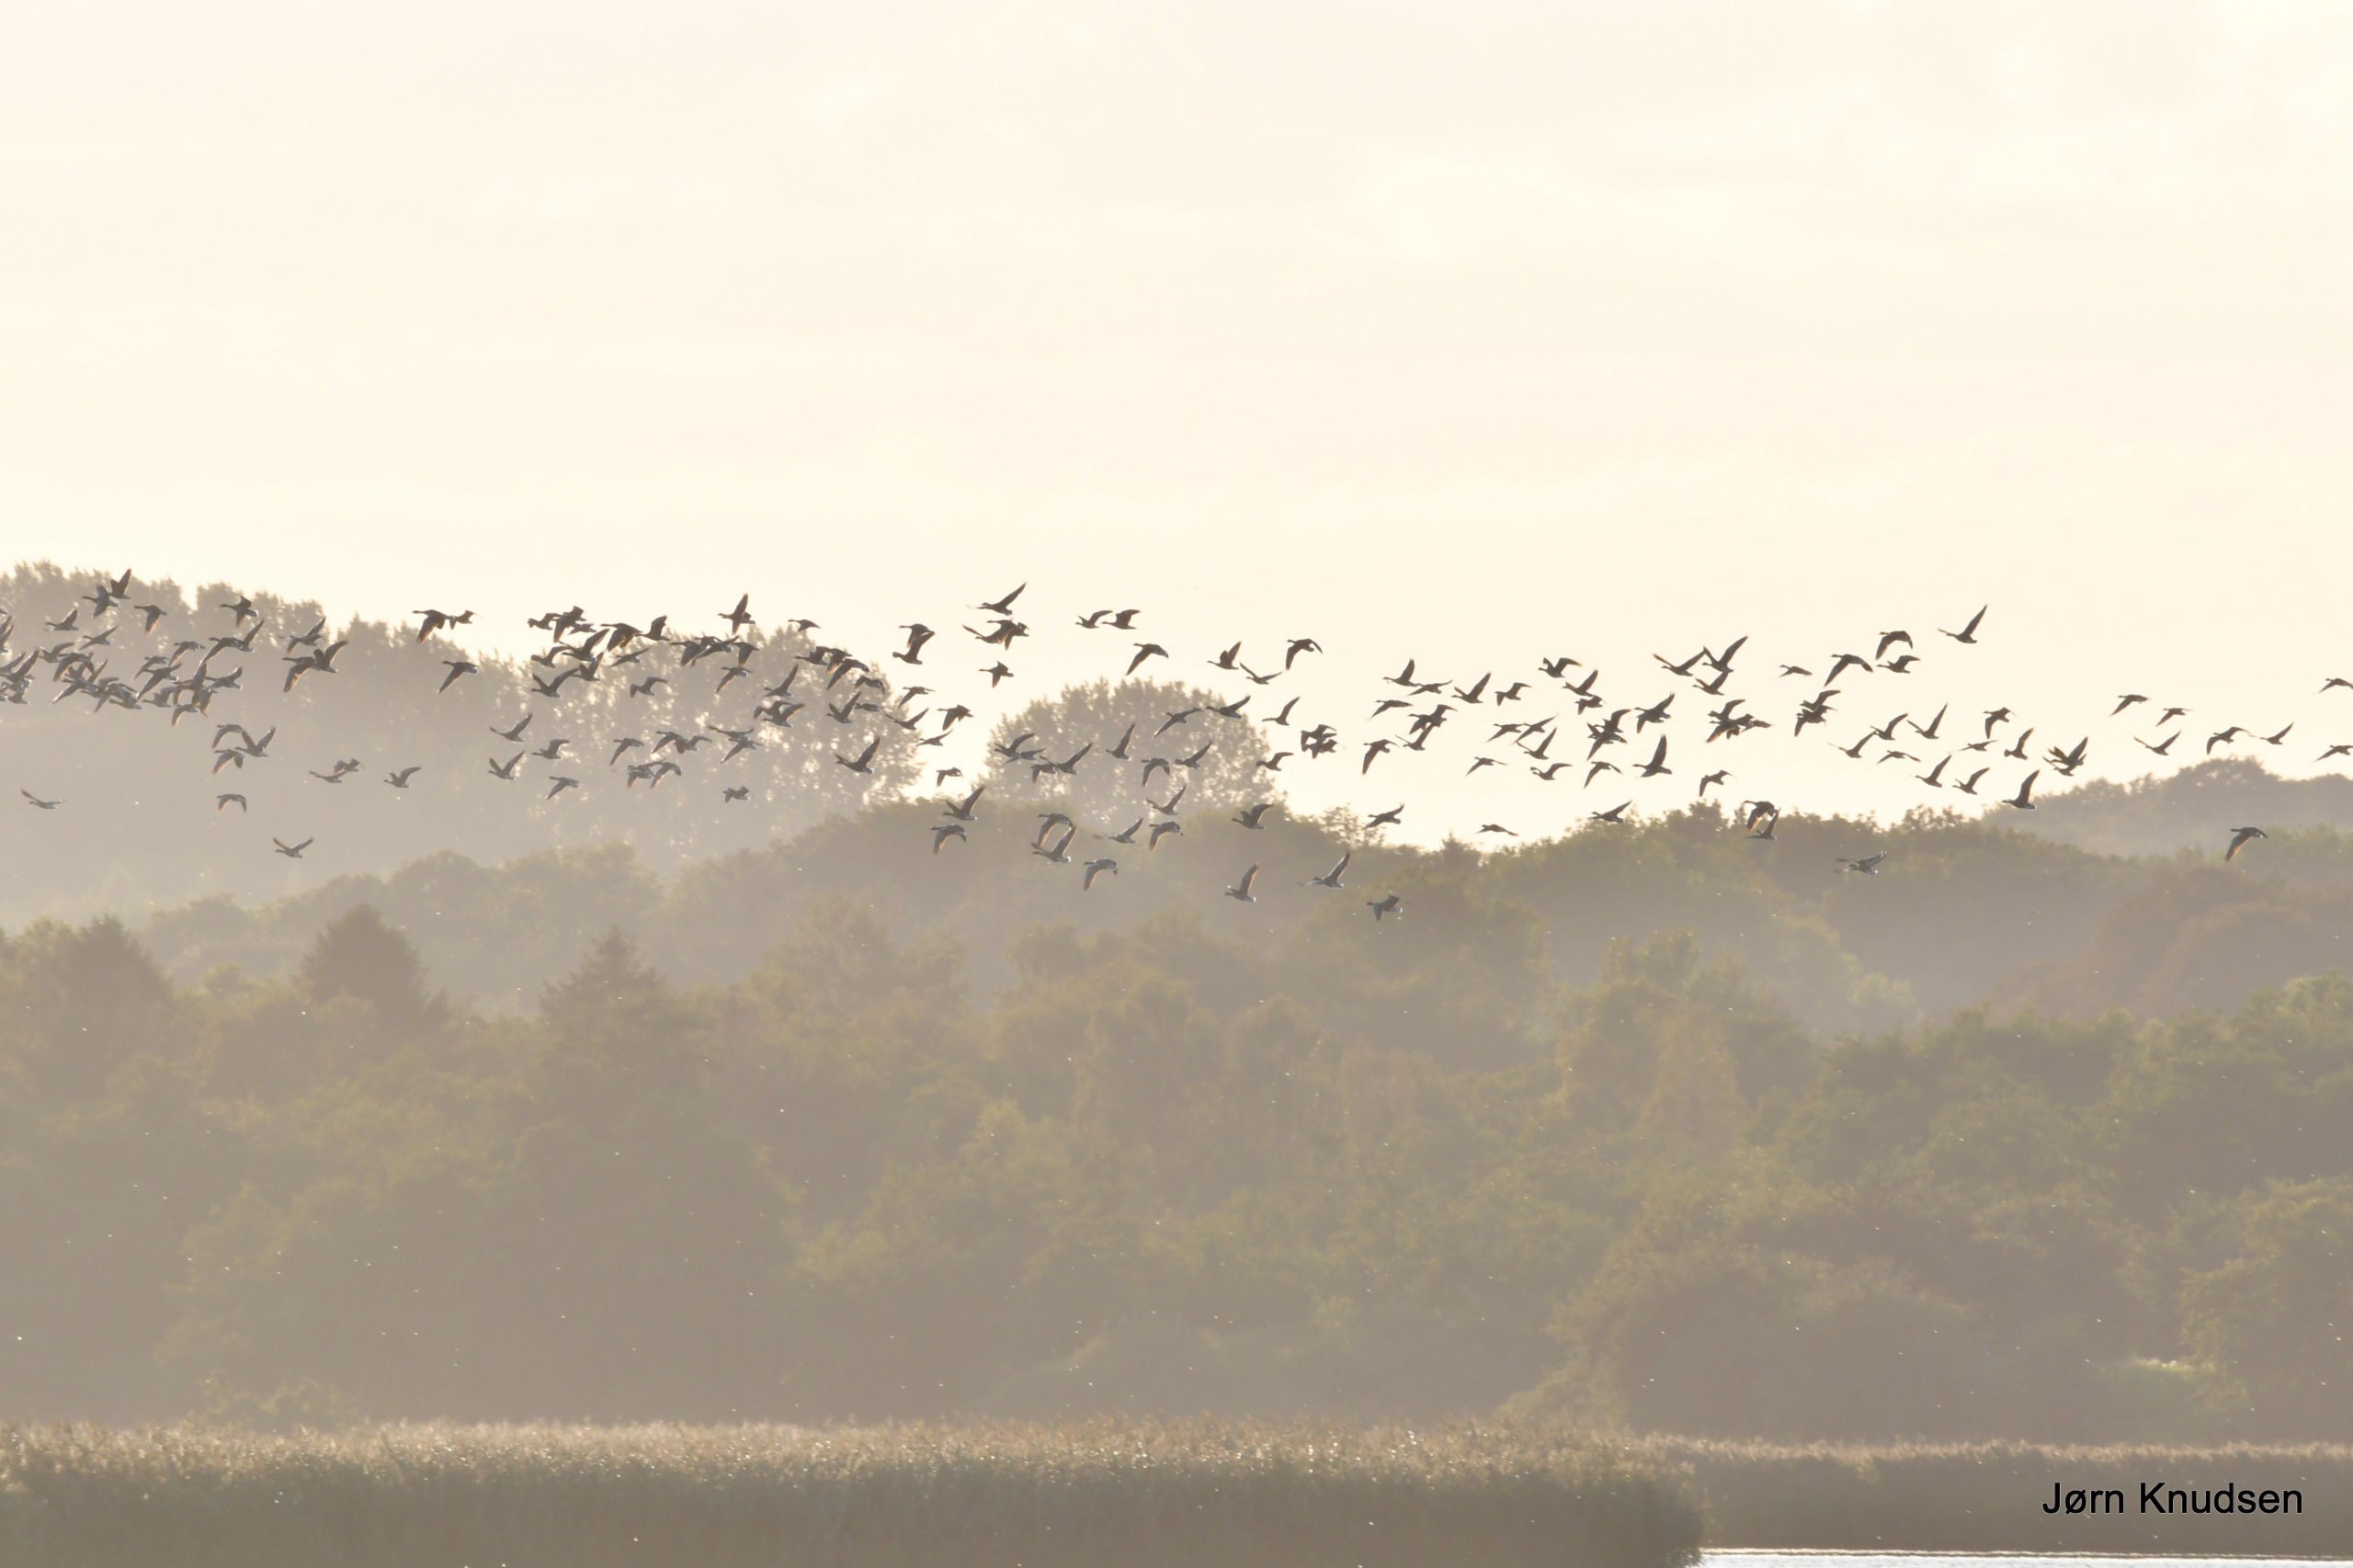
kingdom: Animalia
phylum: Chordata
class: Aves
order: Anseriformes
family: Anatidae
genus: Anser
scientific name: Anser anser
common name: Grågås
